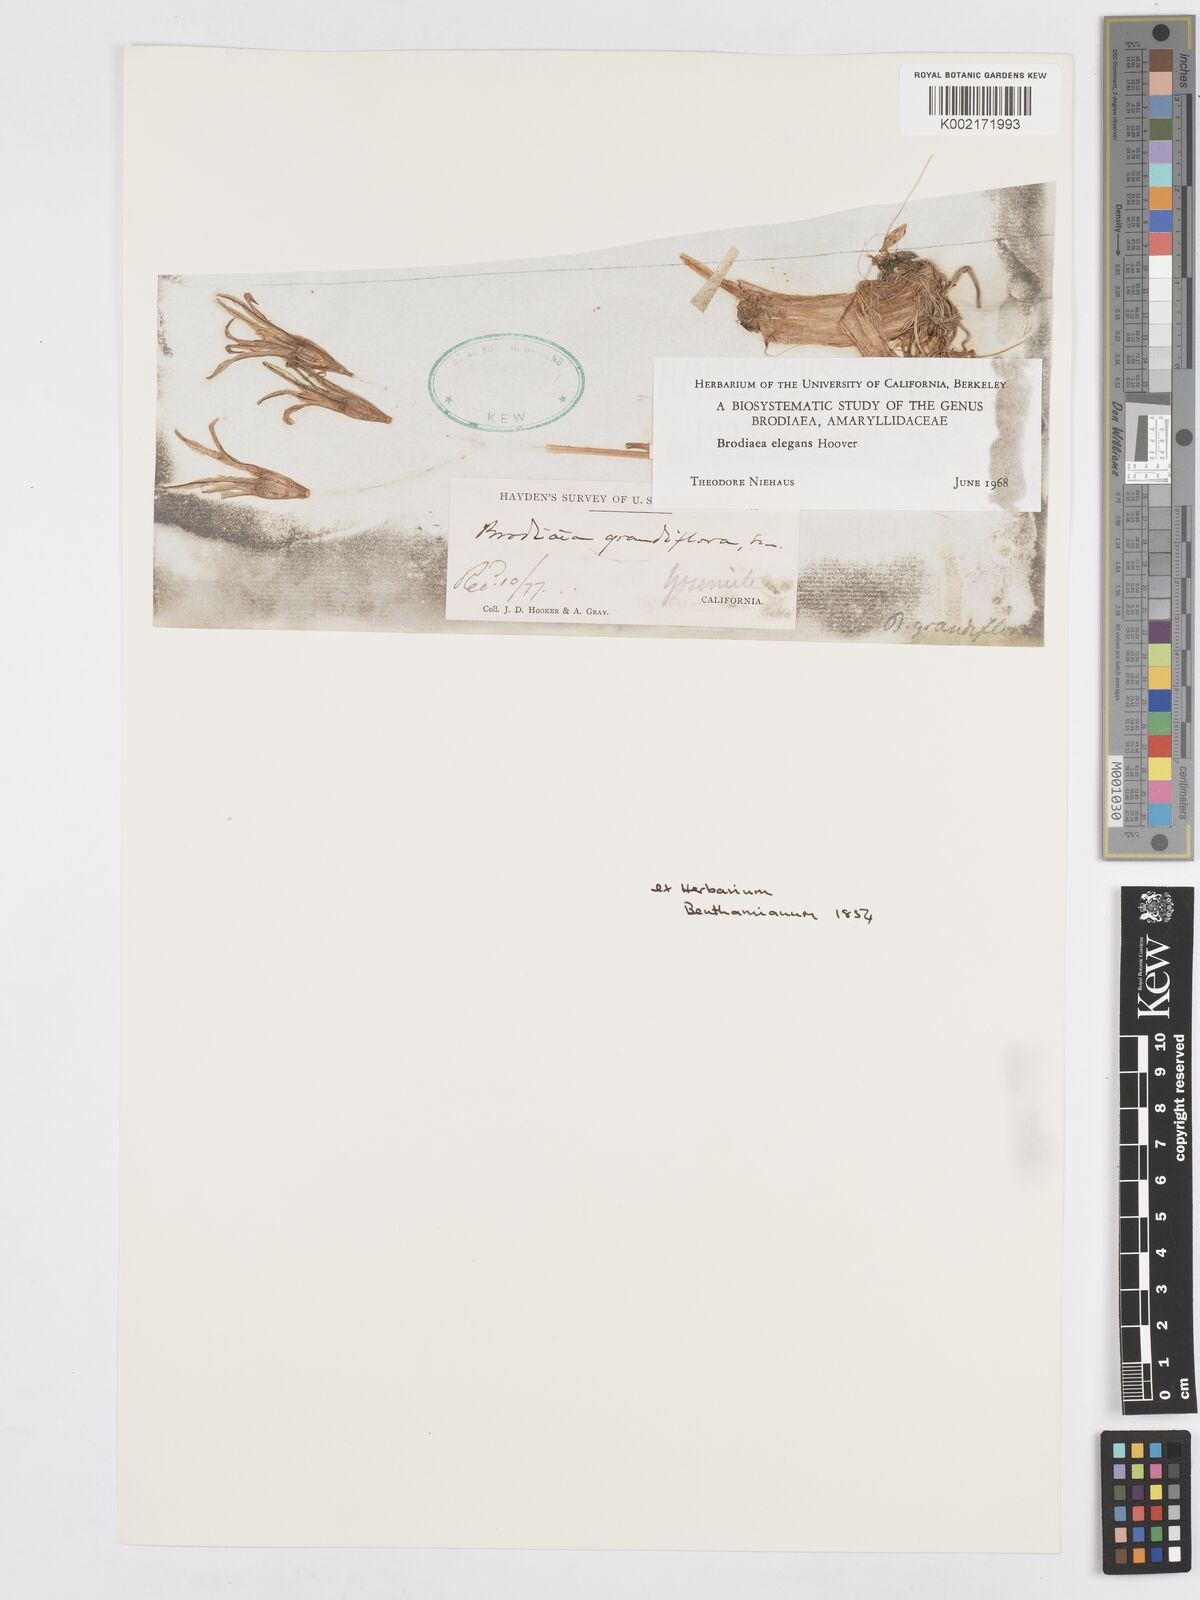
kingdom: Plantae
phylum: Tracheophyta
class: Liliopsida
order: Asparagales
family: Asparagaceae
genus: Brodiaea
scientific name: Brodiaea elegans
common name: Elegant cluster-lily
